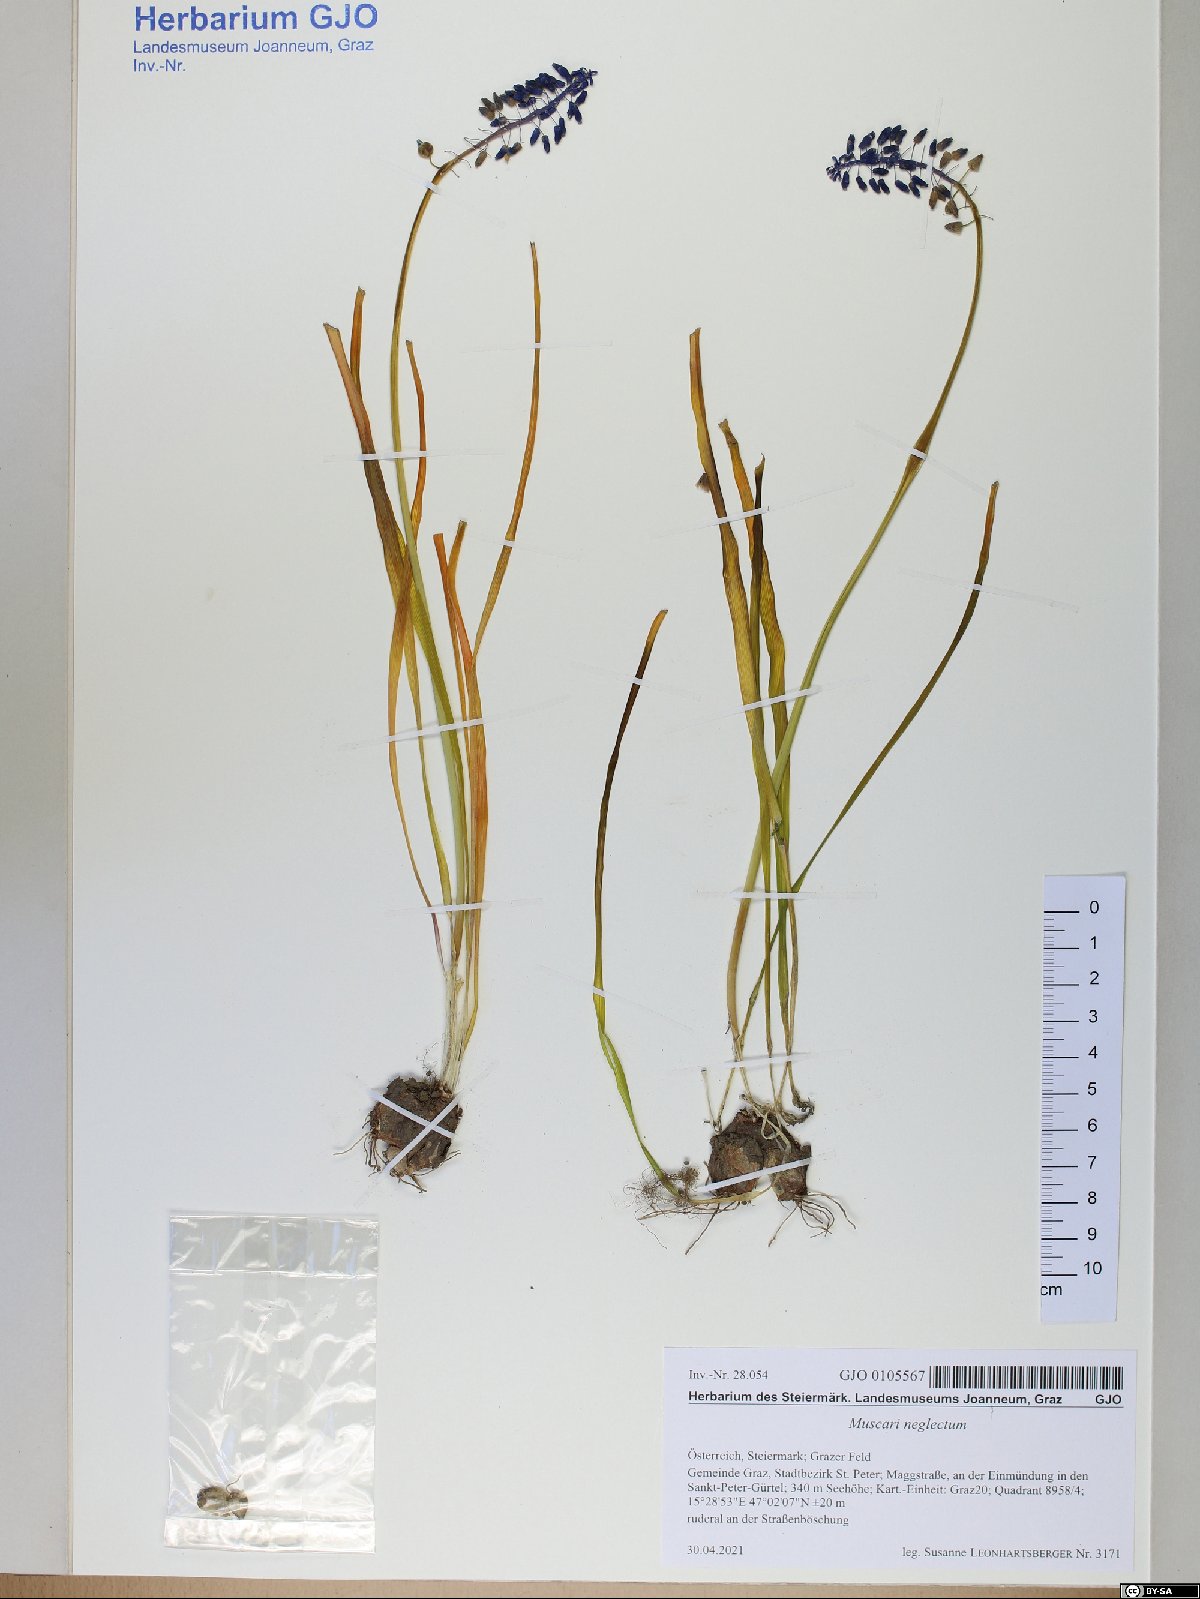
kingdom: Plantae
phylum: Tracheophyta
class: Liliopsida
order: Asparagales
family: Asparagaceae
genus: Muscari
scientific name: Muscari neglectum
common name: Grape-hyacinth
